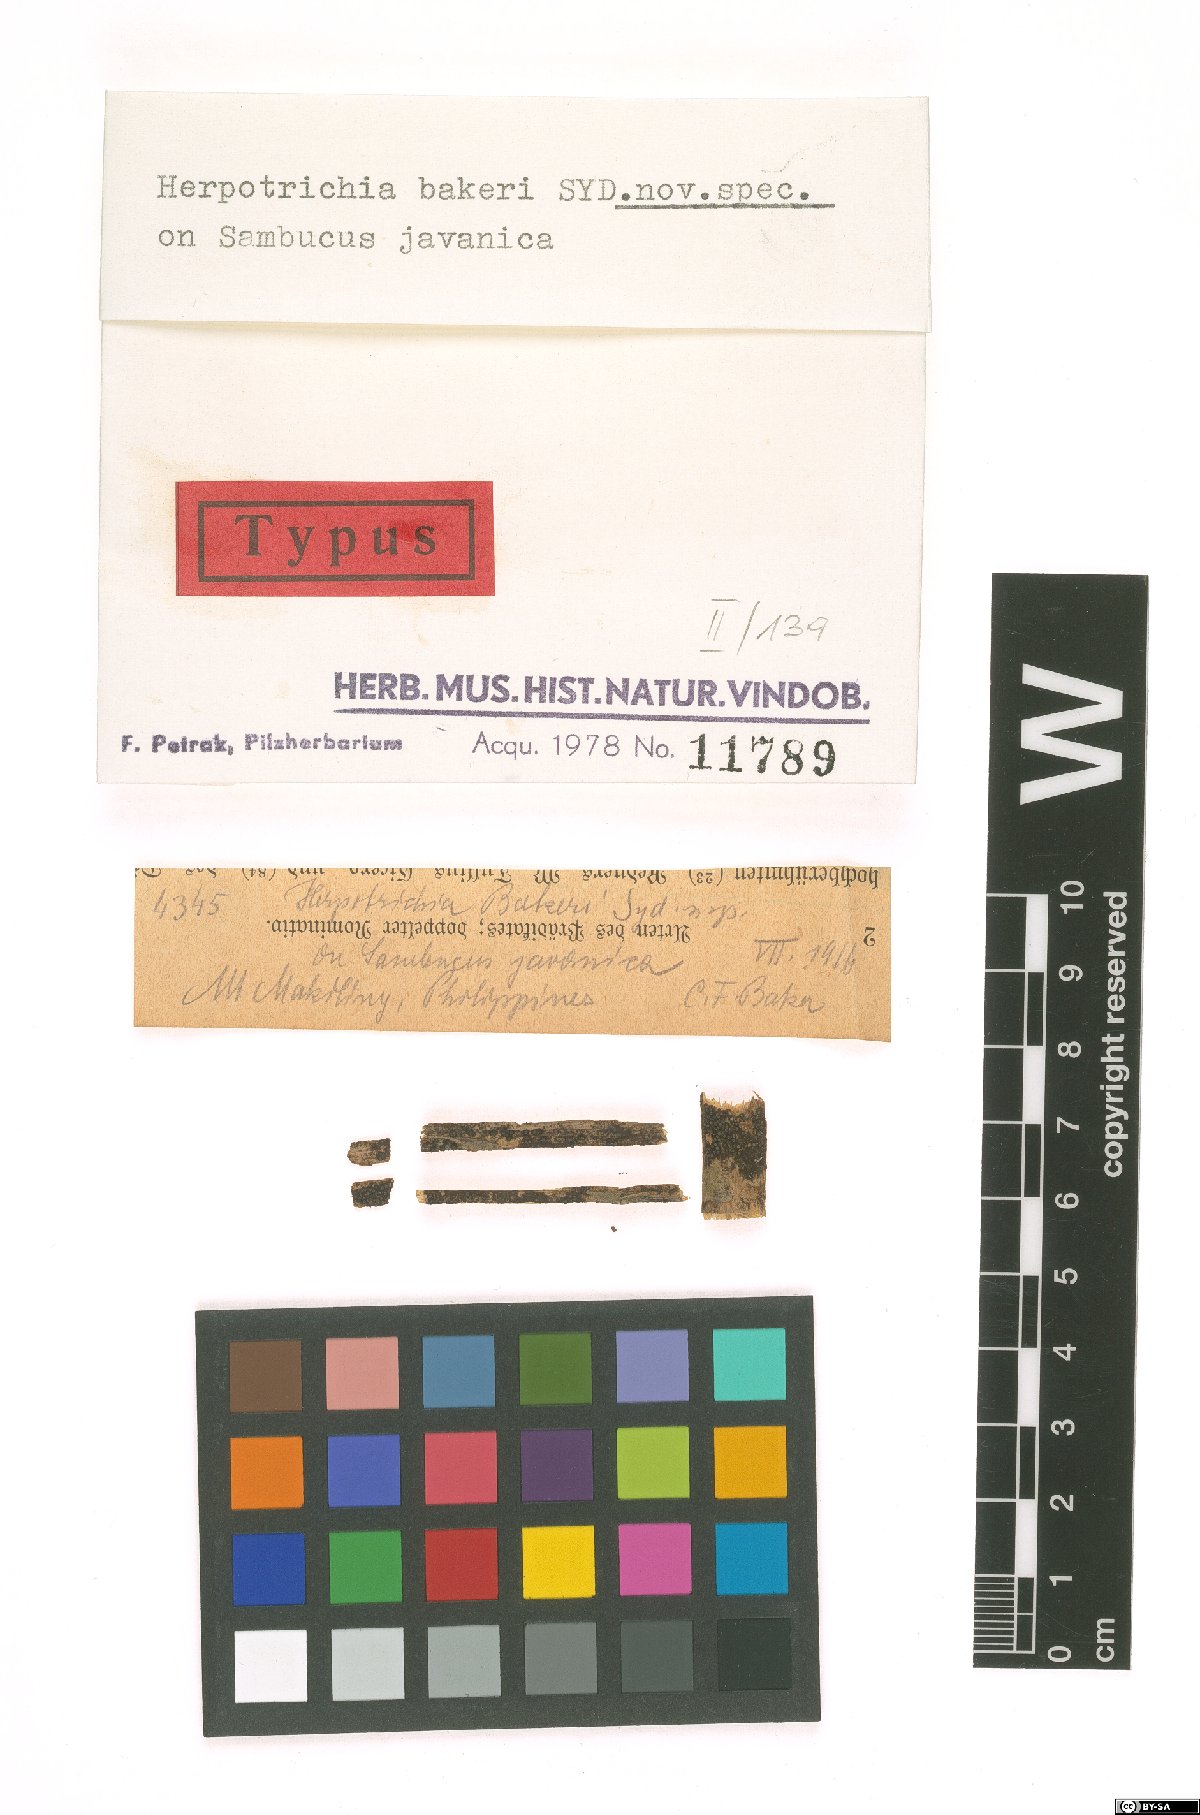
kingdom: Fungi
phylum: Ascomycota
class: Dothideomycetes
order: Pleosporales
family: Melanommataceae
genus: Herpotrichia
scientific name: Herpotrichia bakeri
